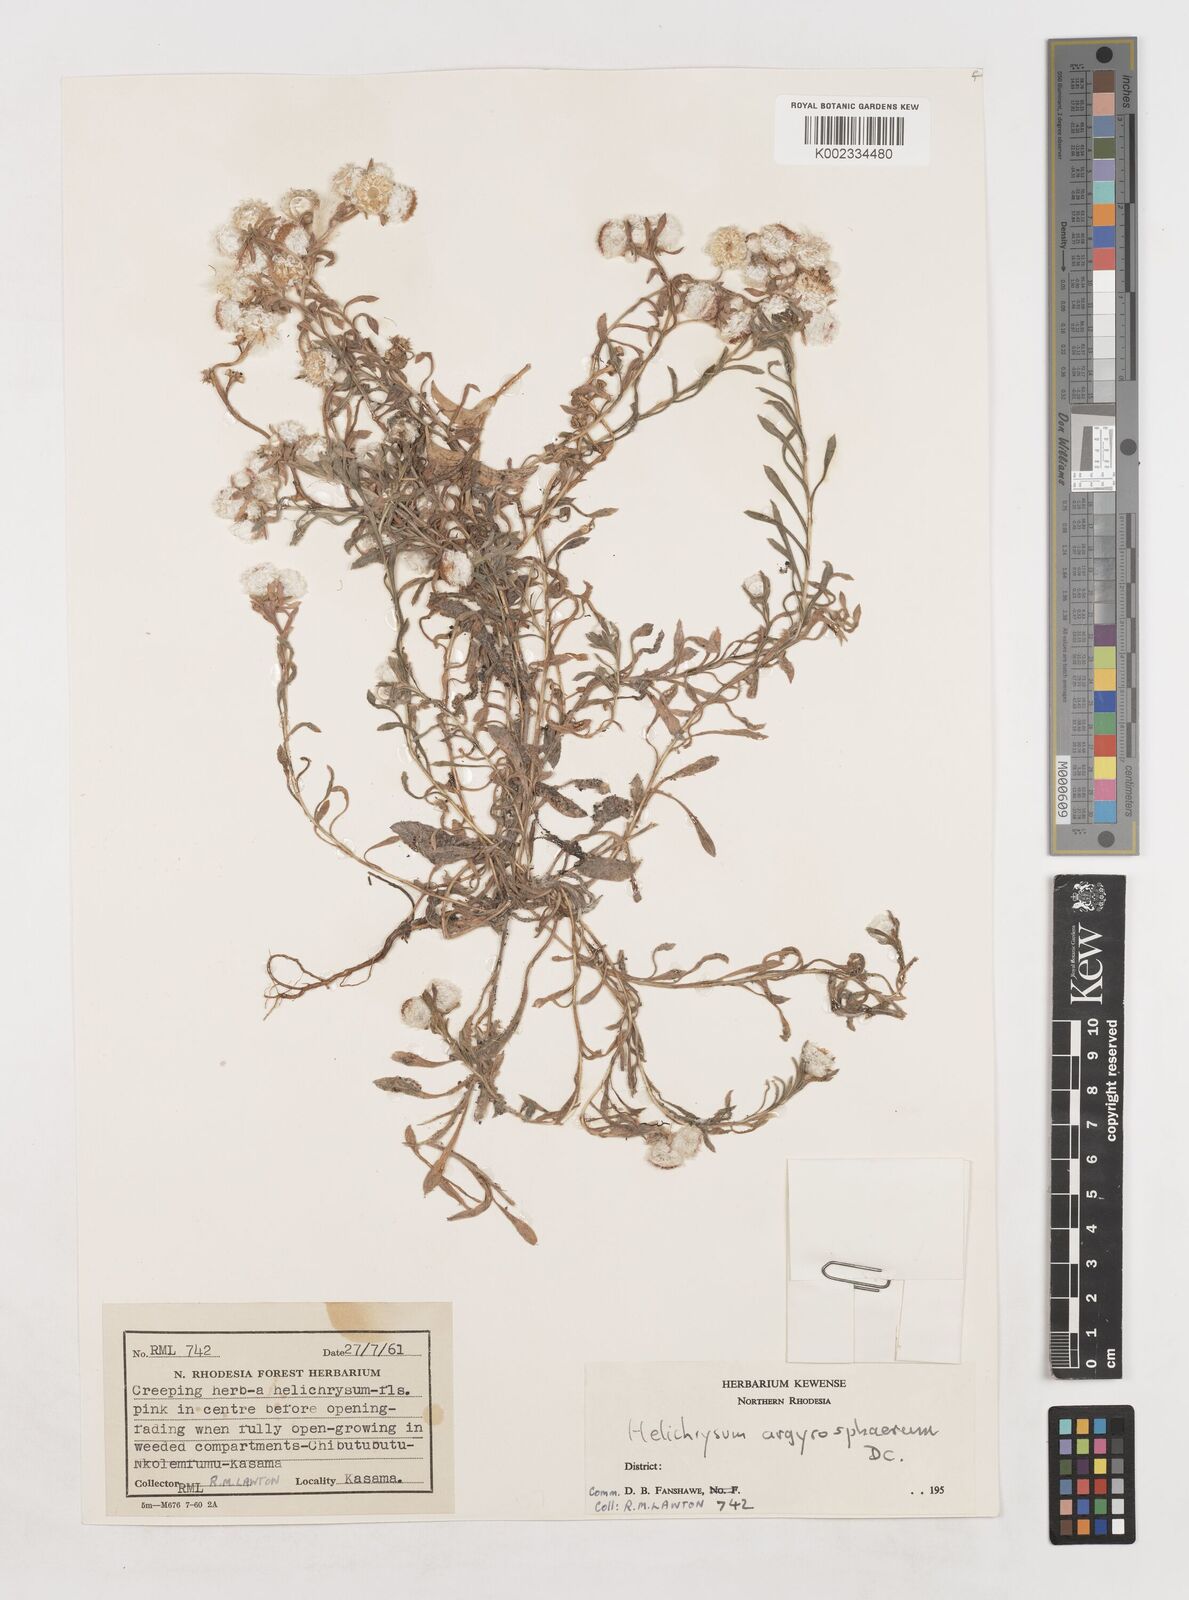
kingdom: Plantae
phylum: Tracheophyta
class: Magnoliopsida
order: Asterales
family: Asteraceae
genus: Helichrysum
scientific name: Helichrysum argyrosphaerum
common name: Wild everlasting
